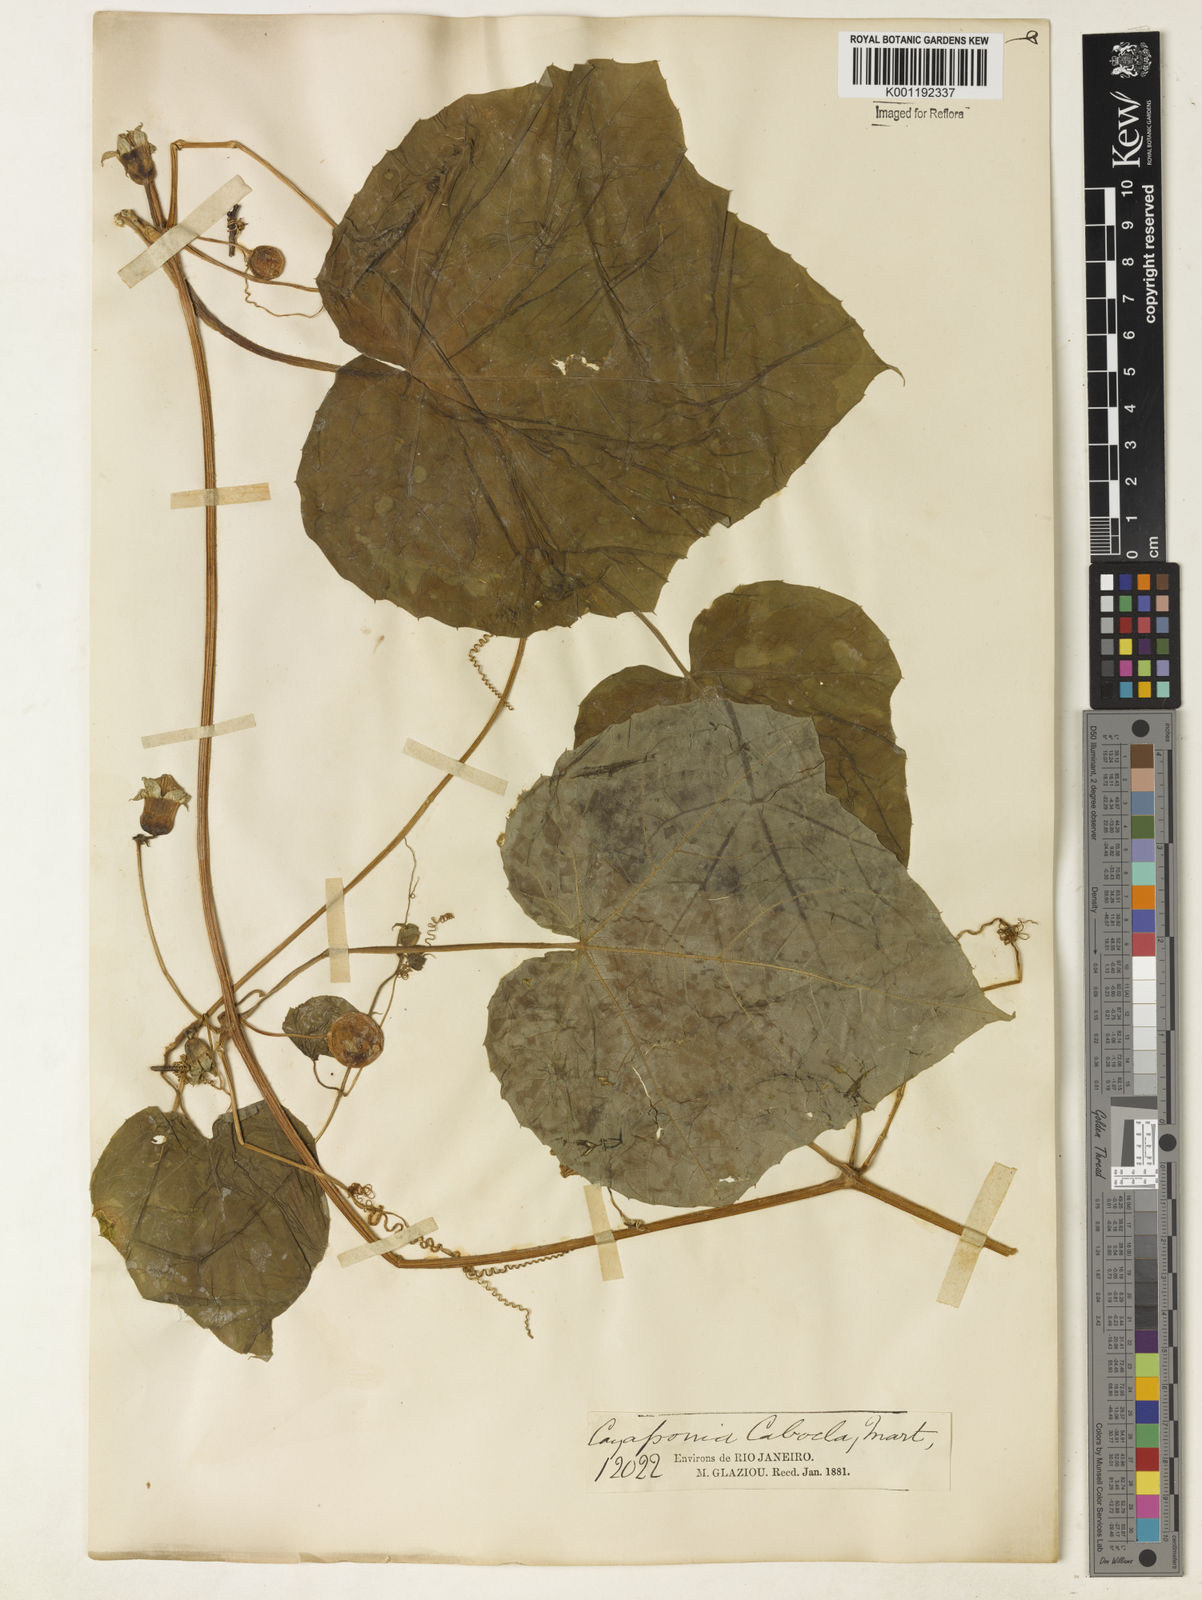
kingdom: Plantae
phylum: Tracheophyta
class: Magnoliopsida
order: Cucurbitales
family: Cucurbitaceae
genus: Cayaponia
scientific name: Cayaponia cabocla
